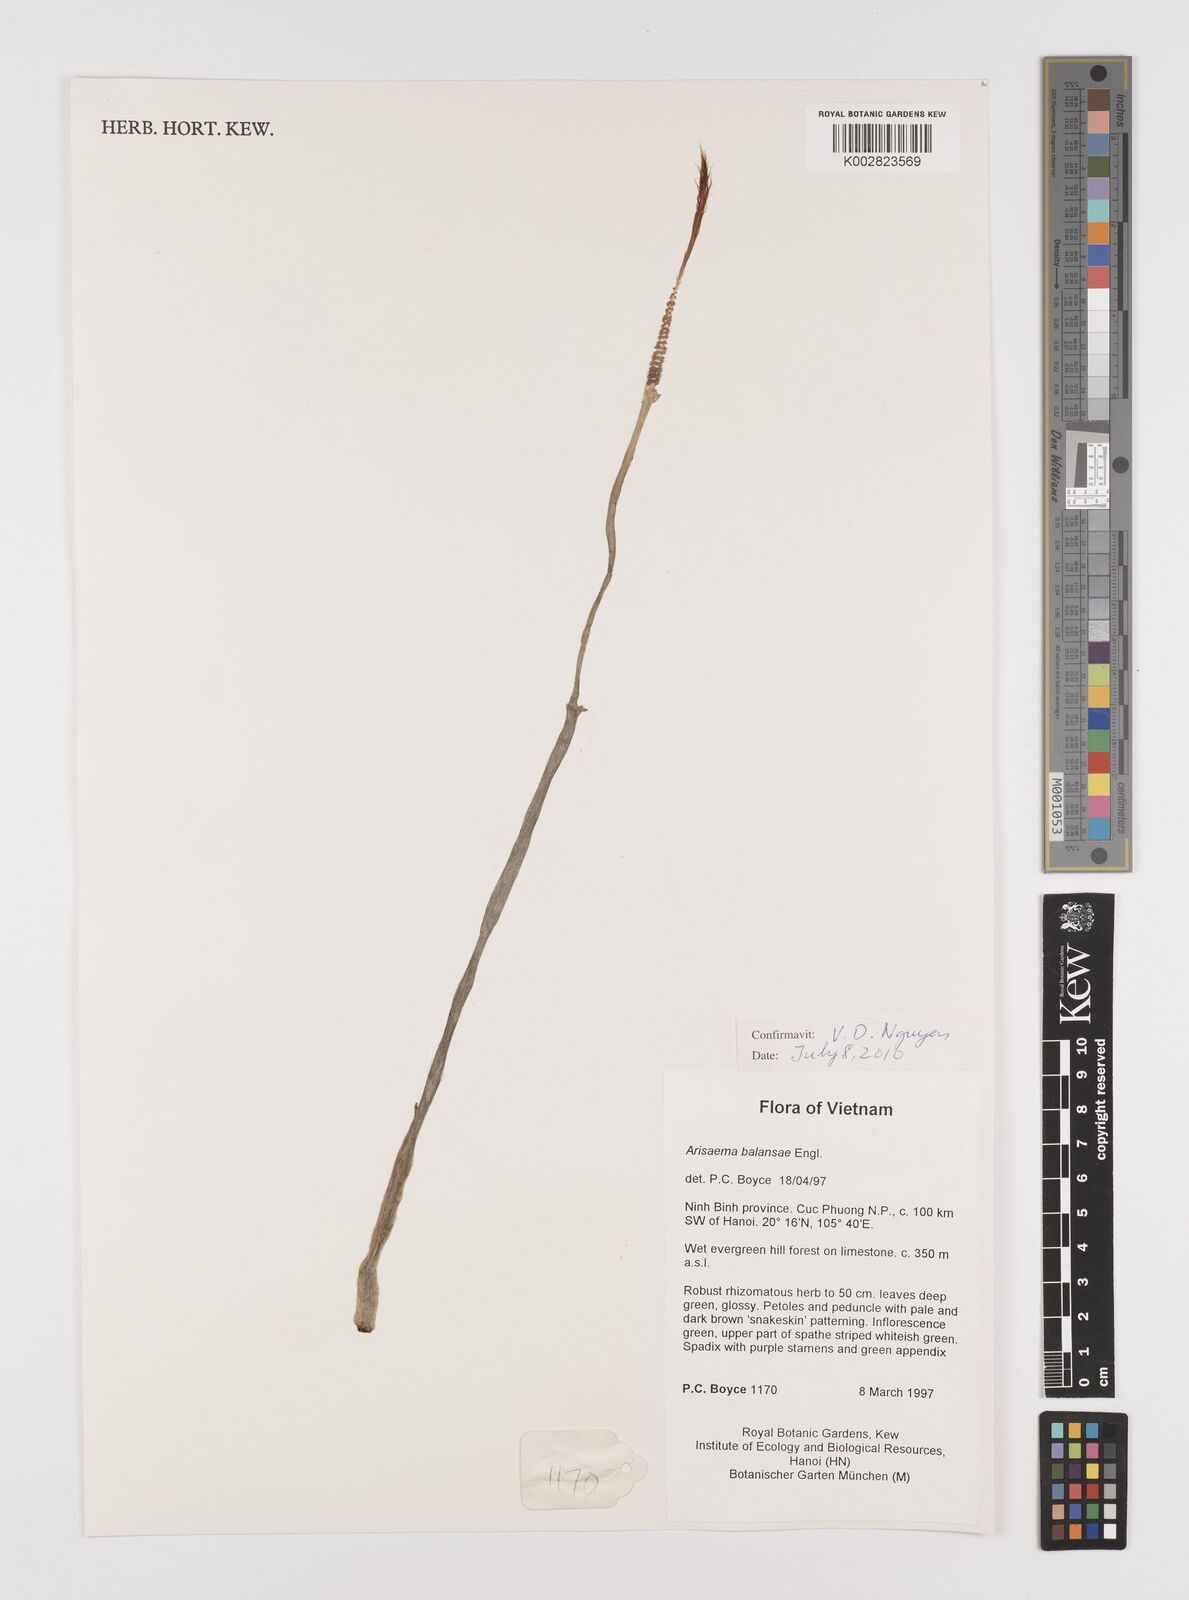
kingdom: Plantae
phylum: Tracheophyta
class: Liliopsida
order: Alismatales
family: Araceae
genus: Arisaema
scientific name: Arisaema balansae
